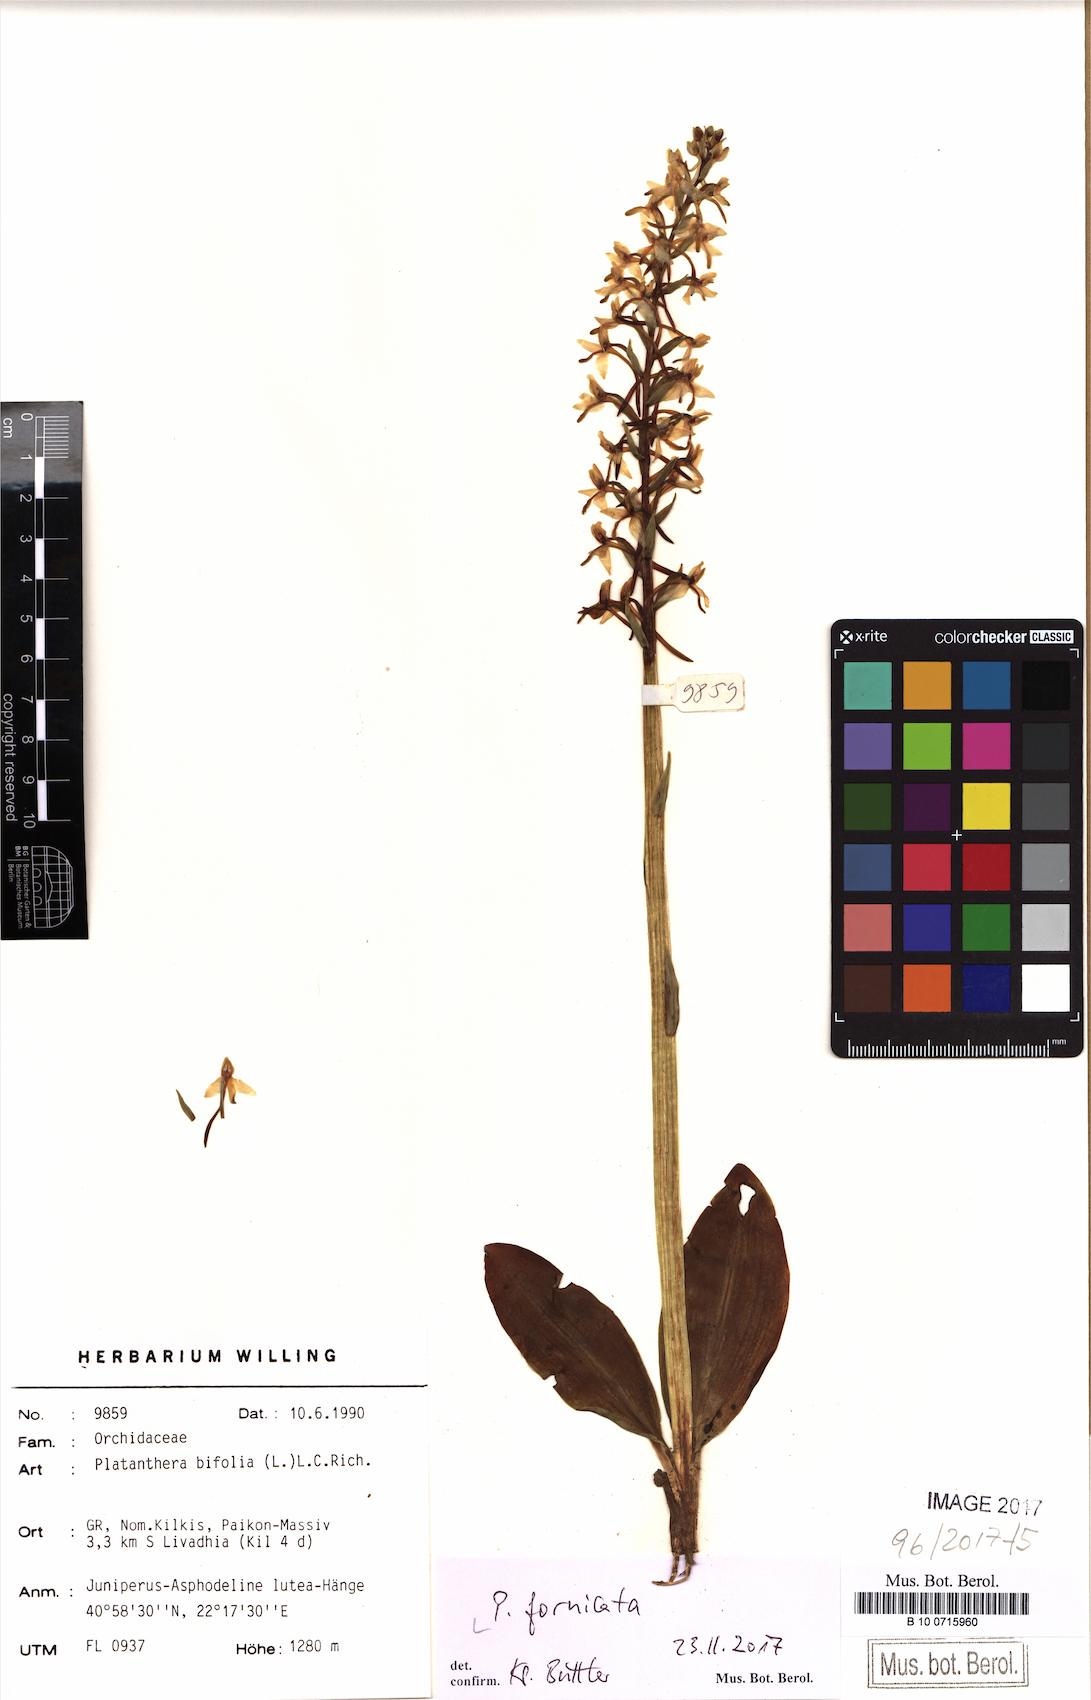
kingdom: Plantae
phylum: Tracheophyta
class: Liliopsida
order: Asparagales
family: Orchidaceae
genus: Platanthera
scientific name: Platanthera bifolia
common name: Lesser butterfly-orchid
